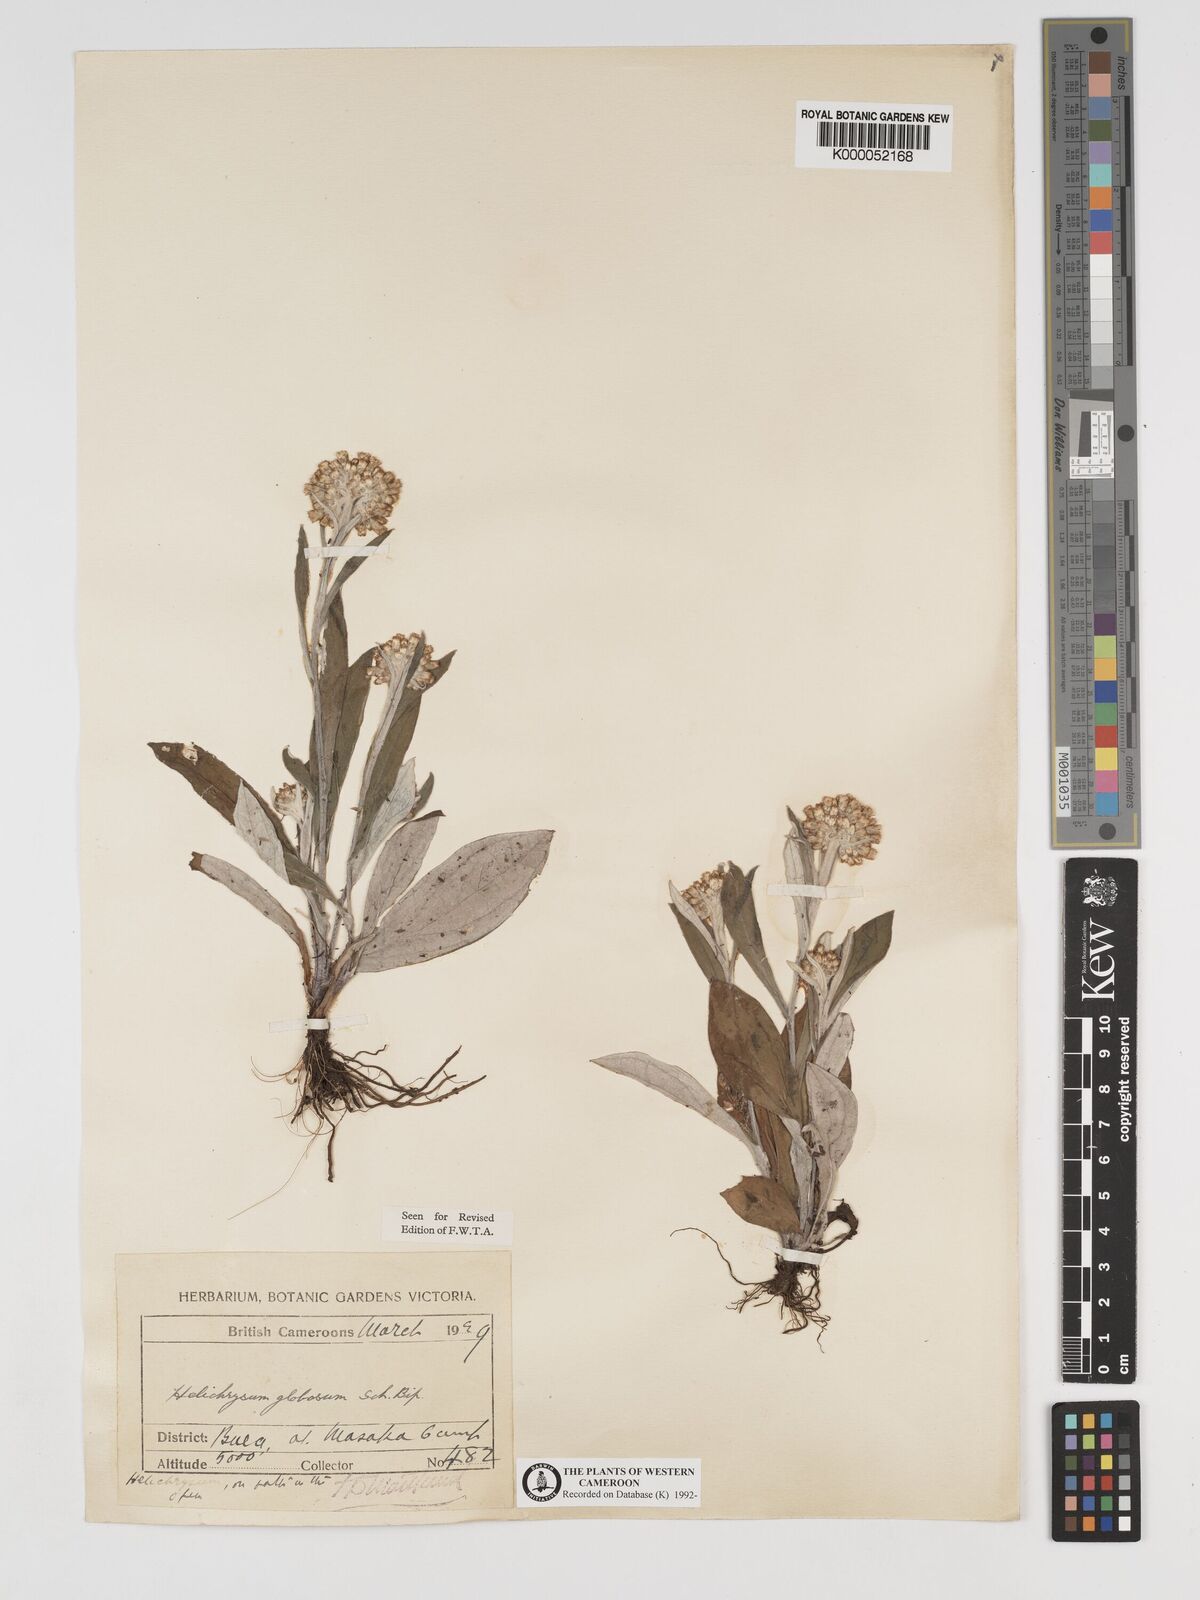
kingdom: Plantae
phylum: Tracheophyta
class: Magnoliopsida
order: Asterales
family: Asteraceae
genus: Helichrysum
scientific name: Helichrysum
